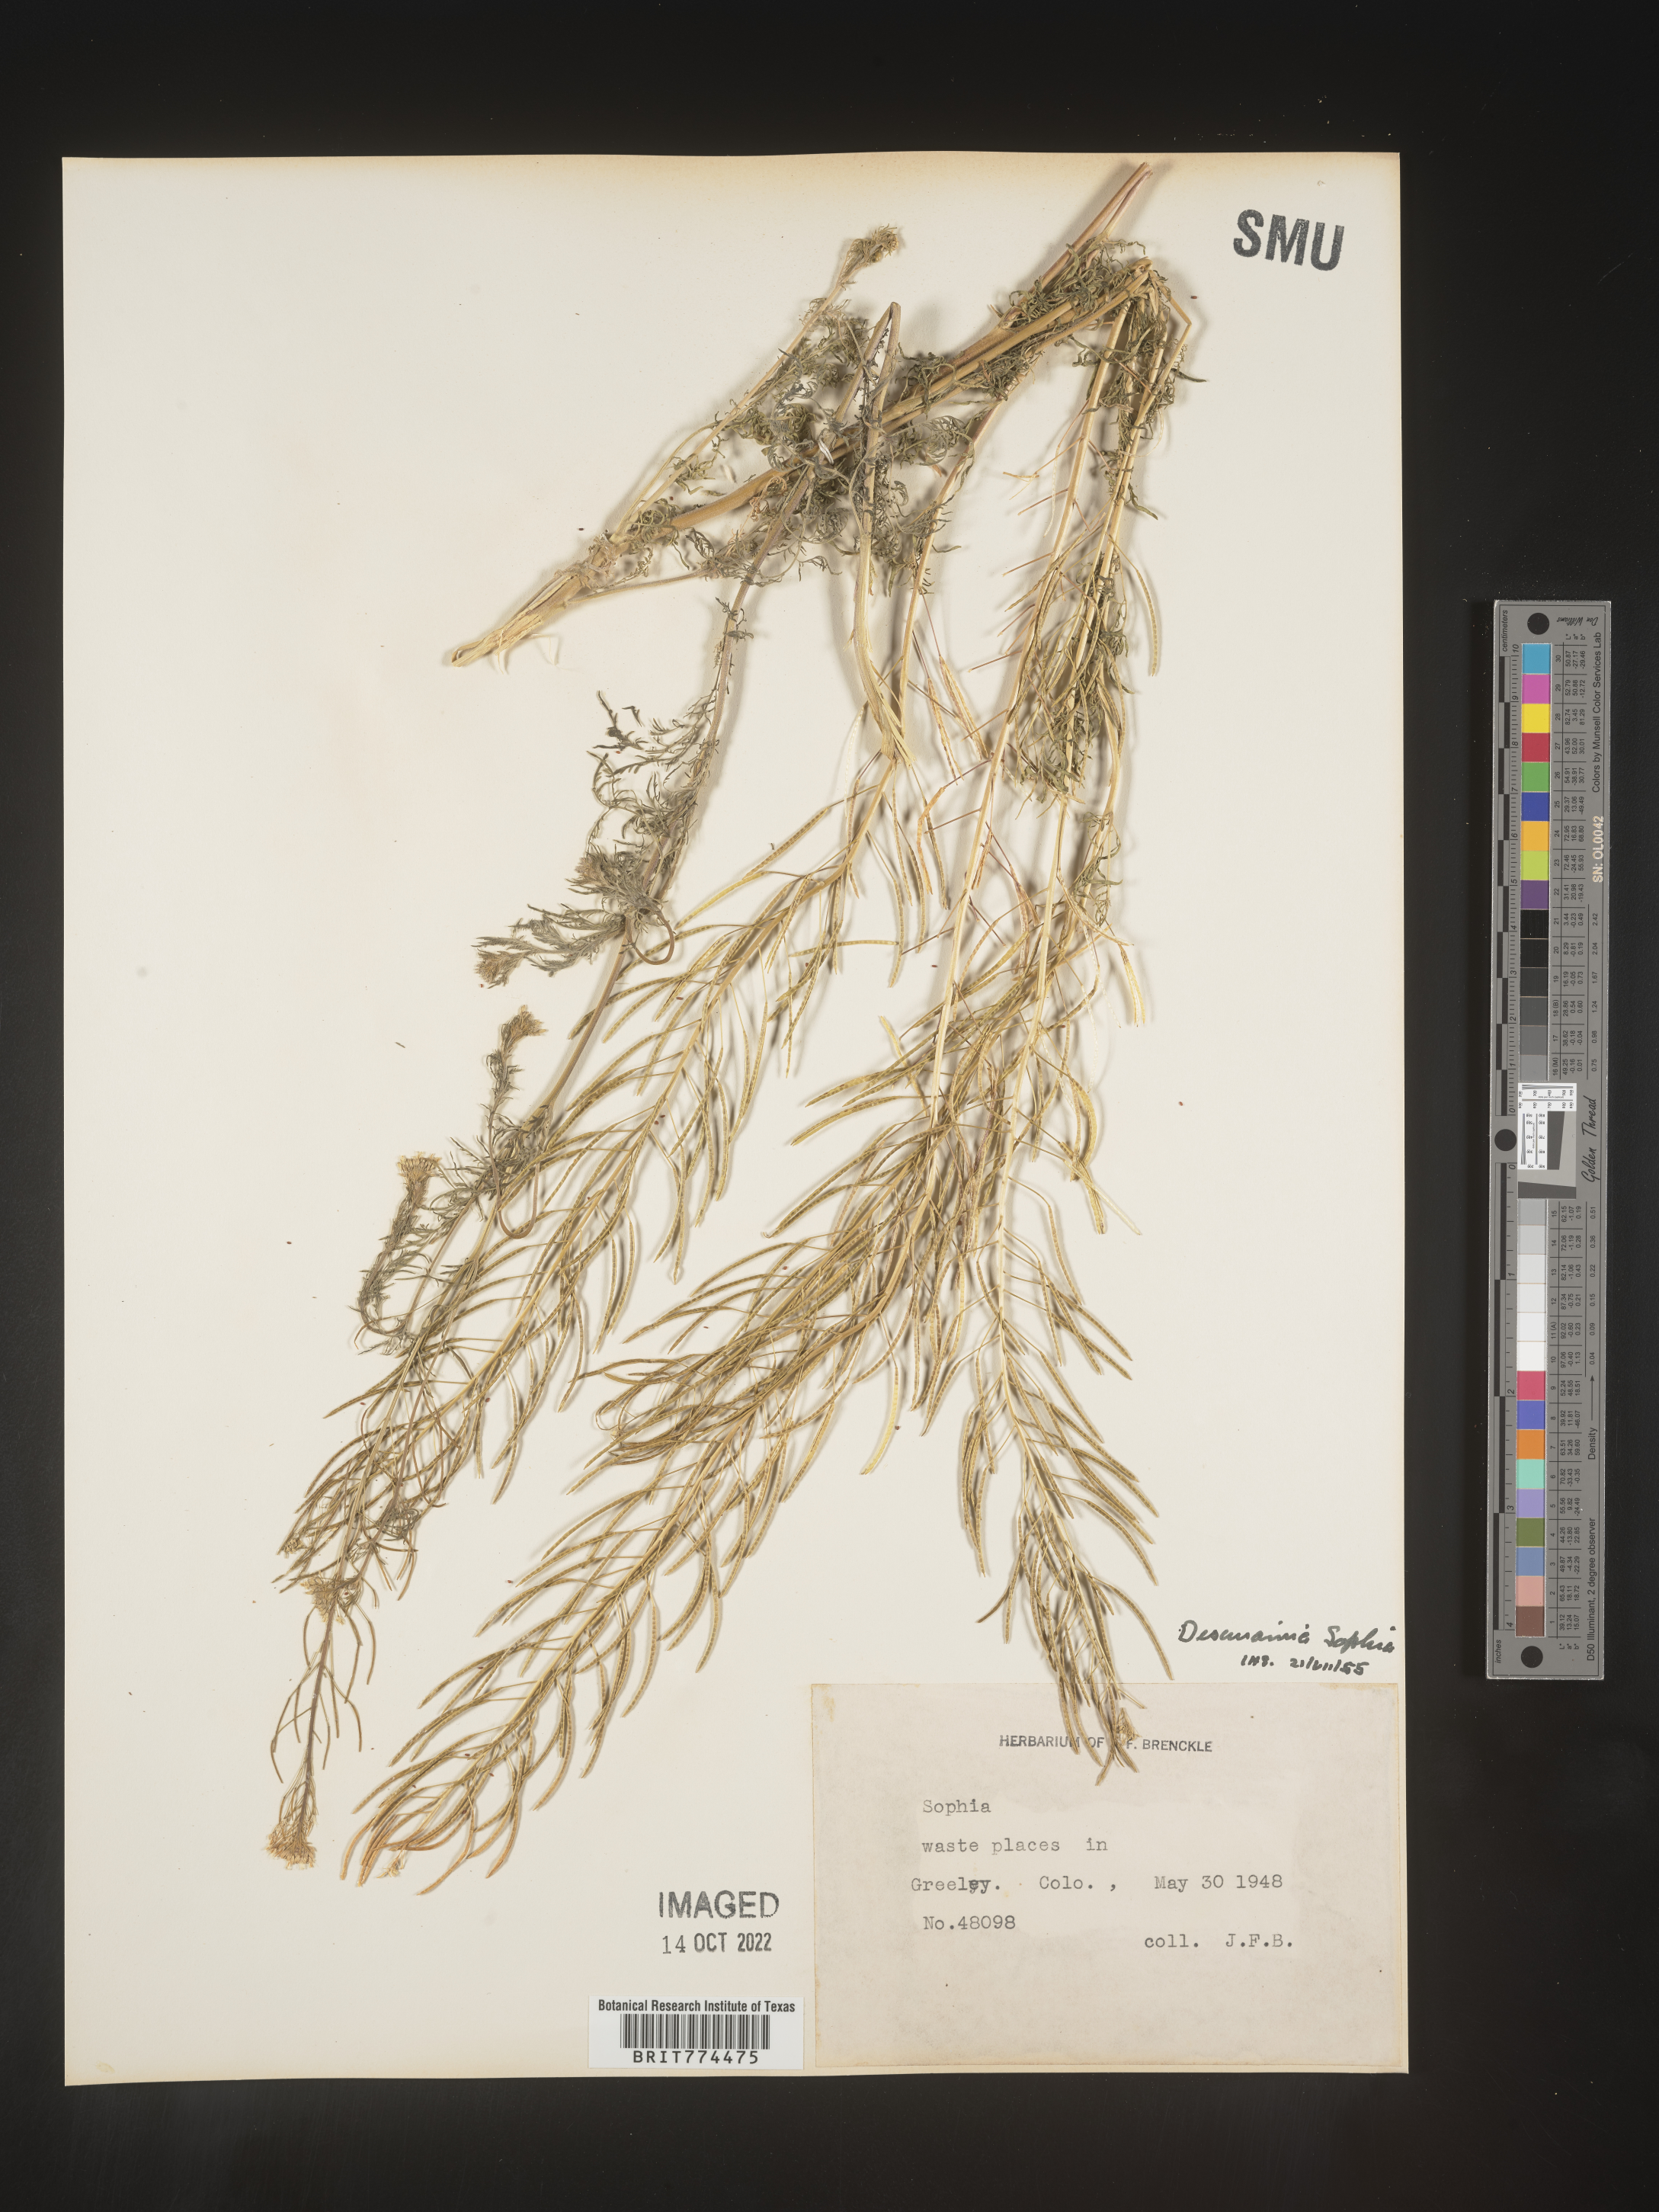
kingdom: Plantae
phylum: Tracheophyta
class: Magnoliopsida
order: Brassicales
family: Brassicaceae
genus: Descurainia
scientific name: Descurainia sophia
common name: Flixweed
